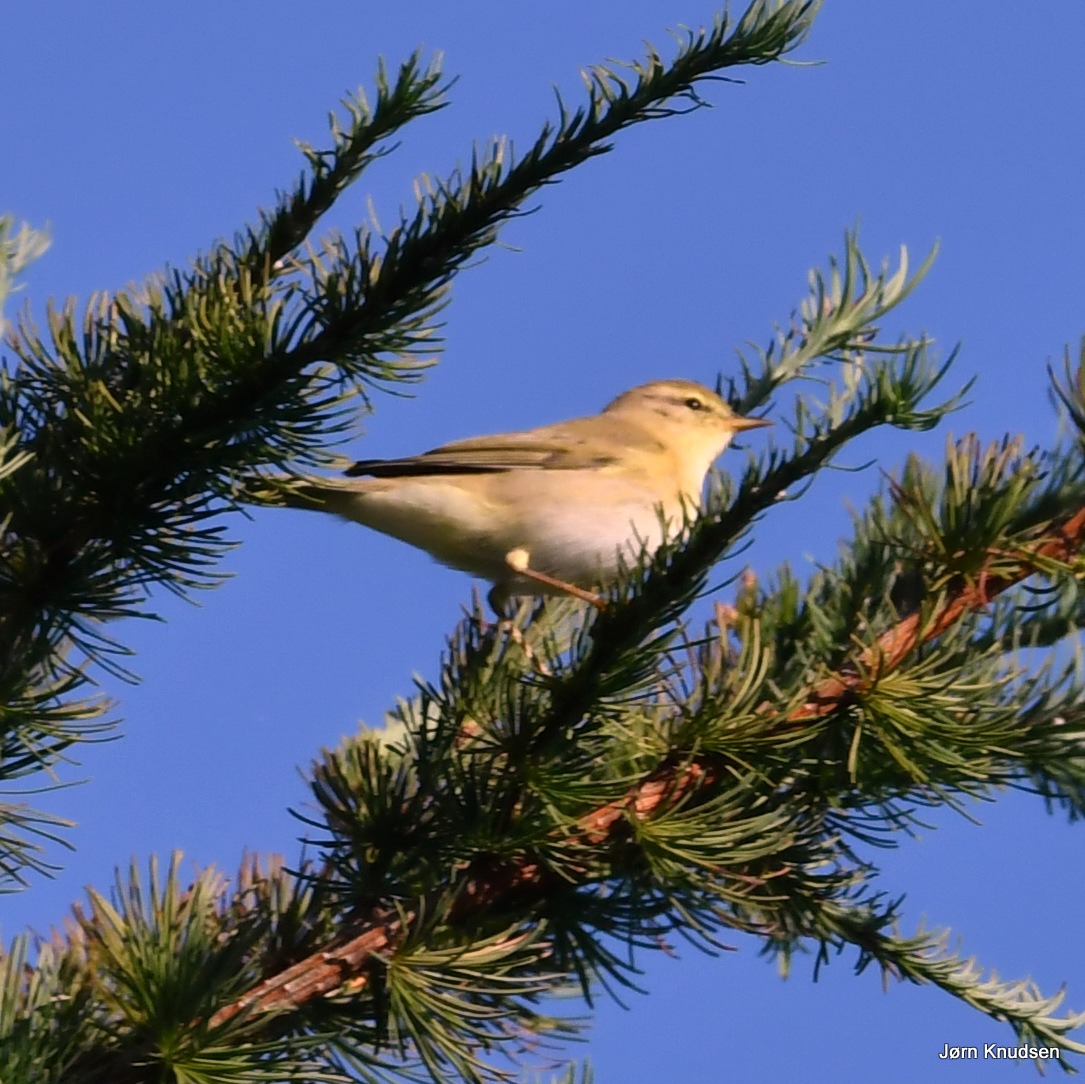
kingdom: Animalia
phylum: Chordata
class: Aves
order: Passeriformes
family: Phylloscopidae
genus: Phylloscopus
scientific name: Phylloscopus trochilus
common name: Løvsanger
